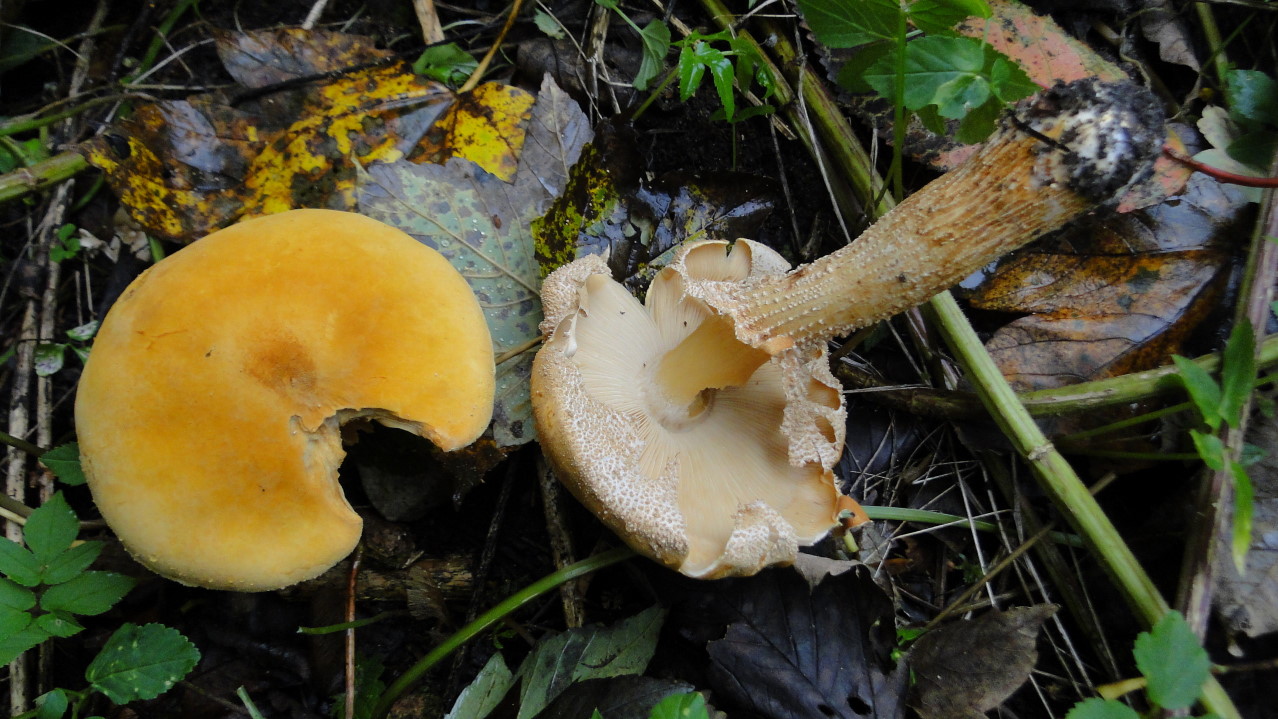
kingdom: Fungi
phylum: Basidiomycota
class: Agaricomycetes
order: Agaricales
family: Tricholomataceae
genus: Phaeolepiota
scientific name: Phaeolepiota aurea
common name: gyldenhat
